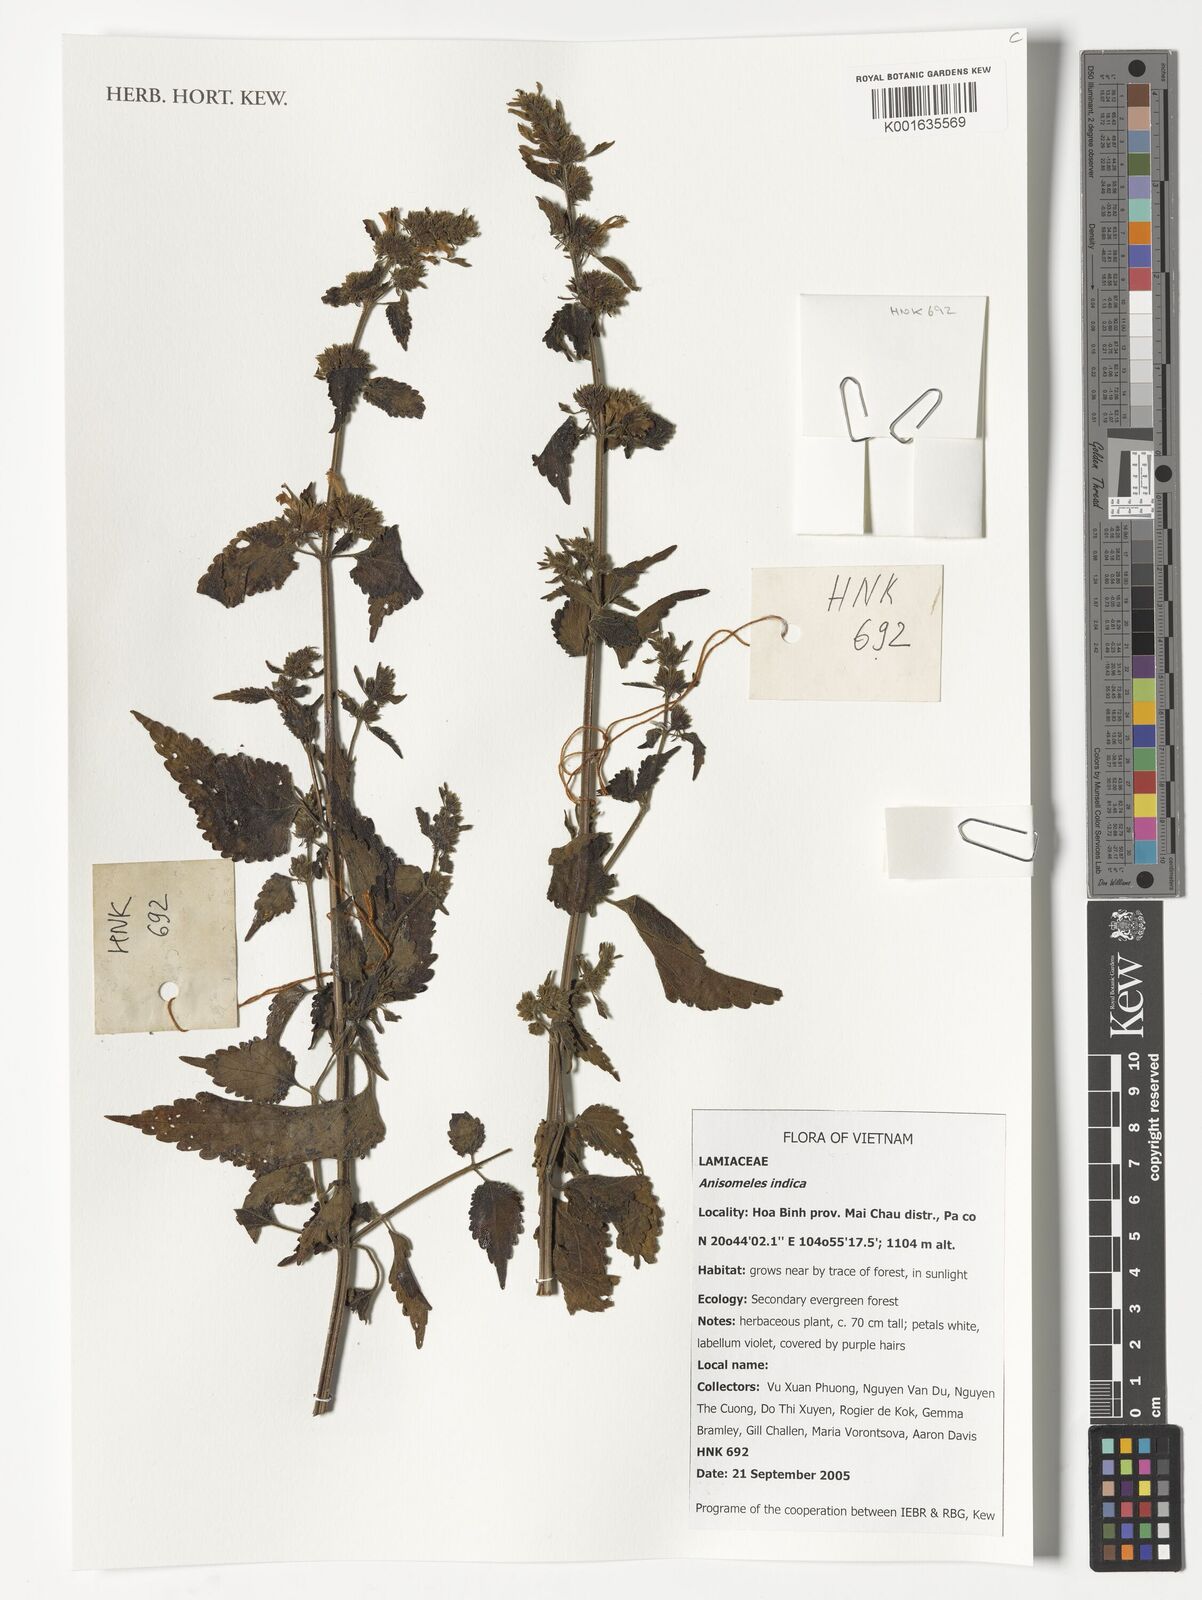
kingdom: Plantae
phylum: Tracheophyta
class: Magnoliopsida
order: Lamiales
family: Lamiaceae
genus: Anisomeles
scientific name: Anisomeles indica
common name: Catmint
